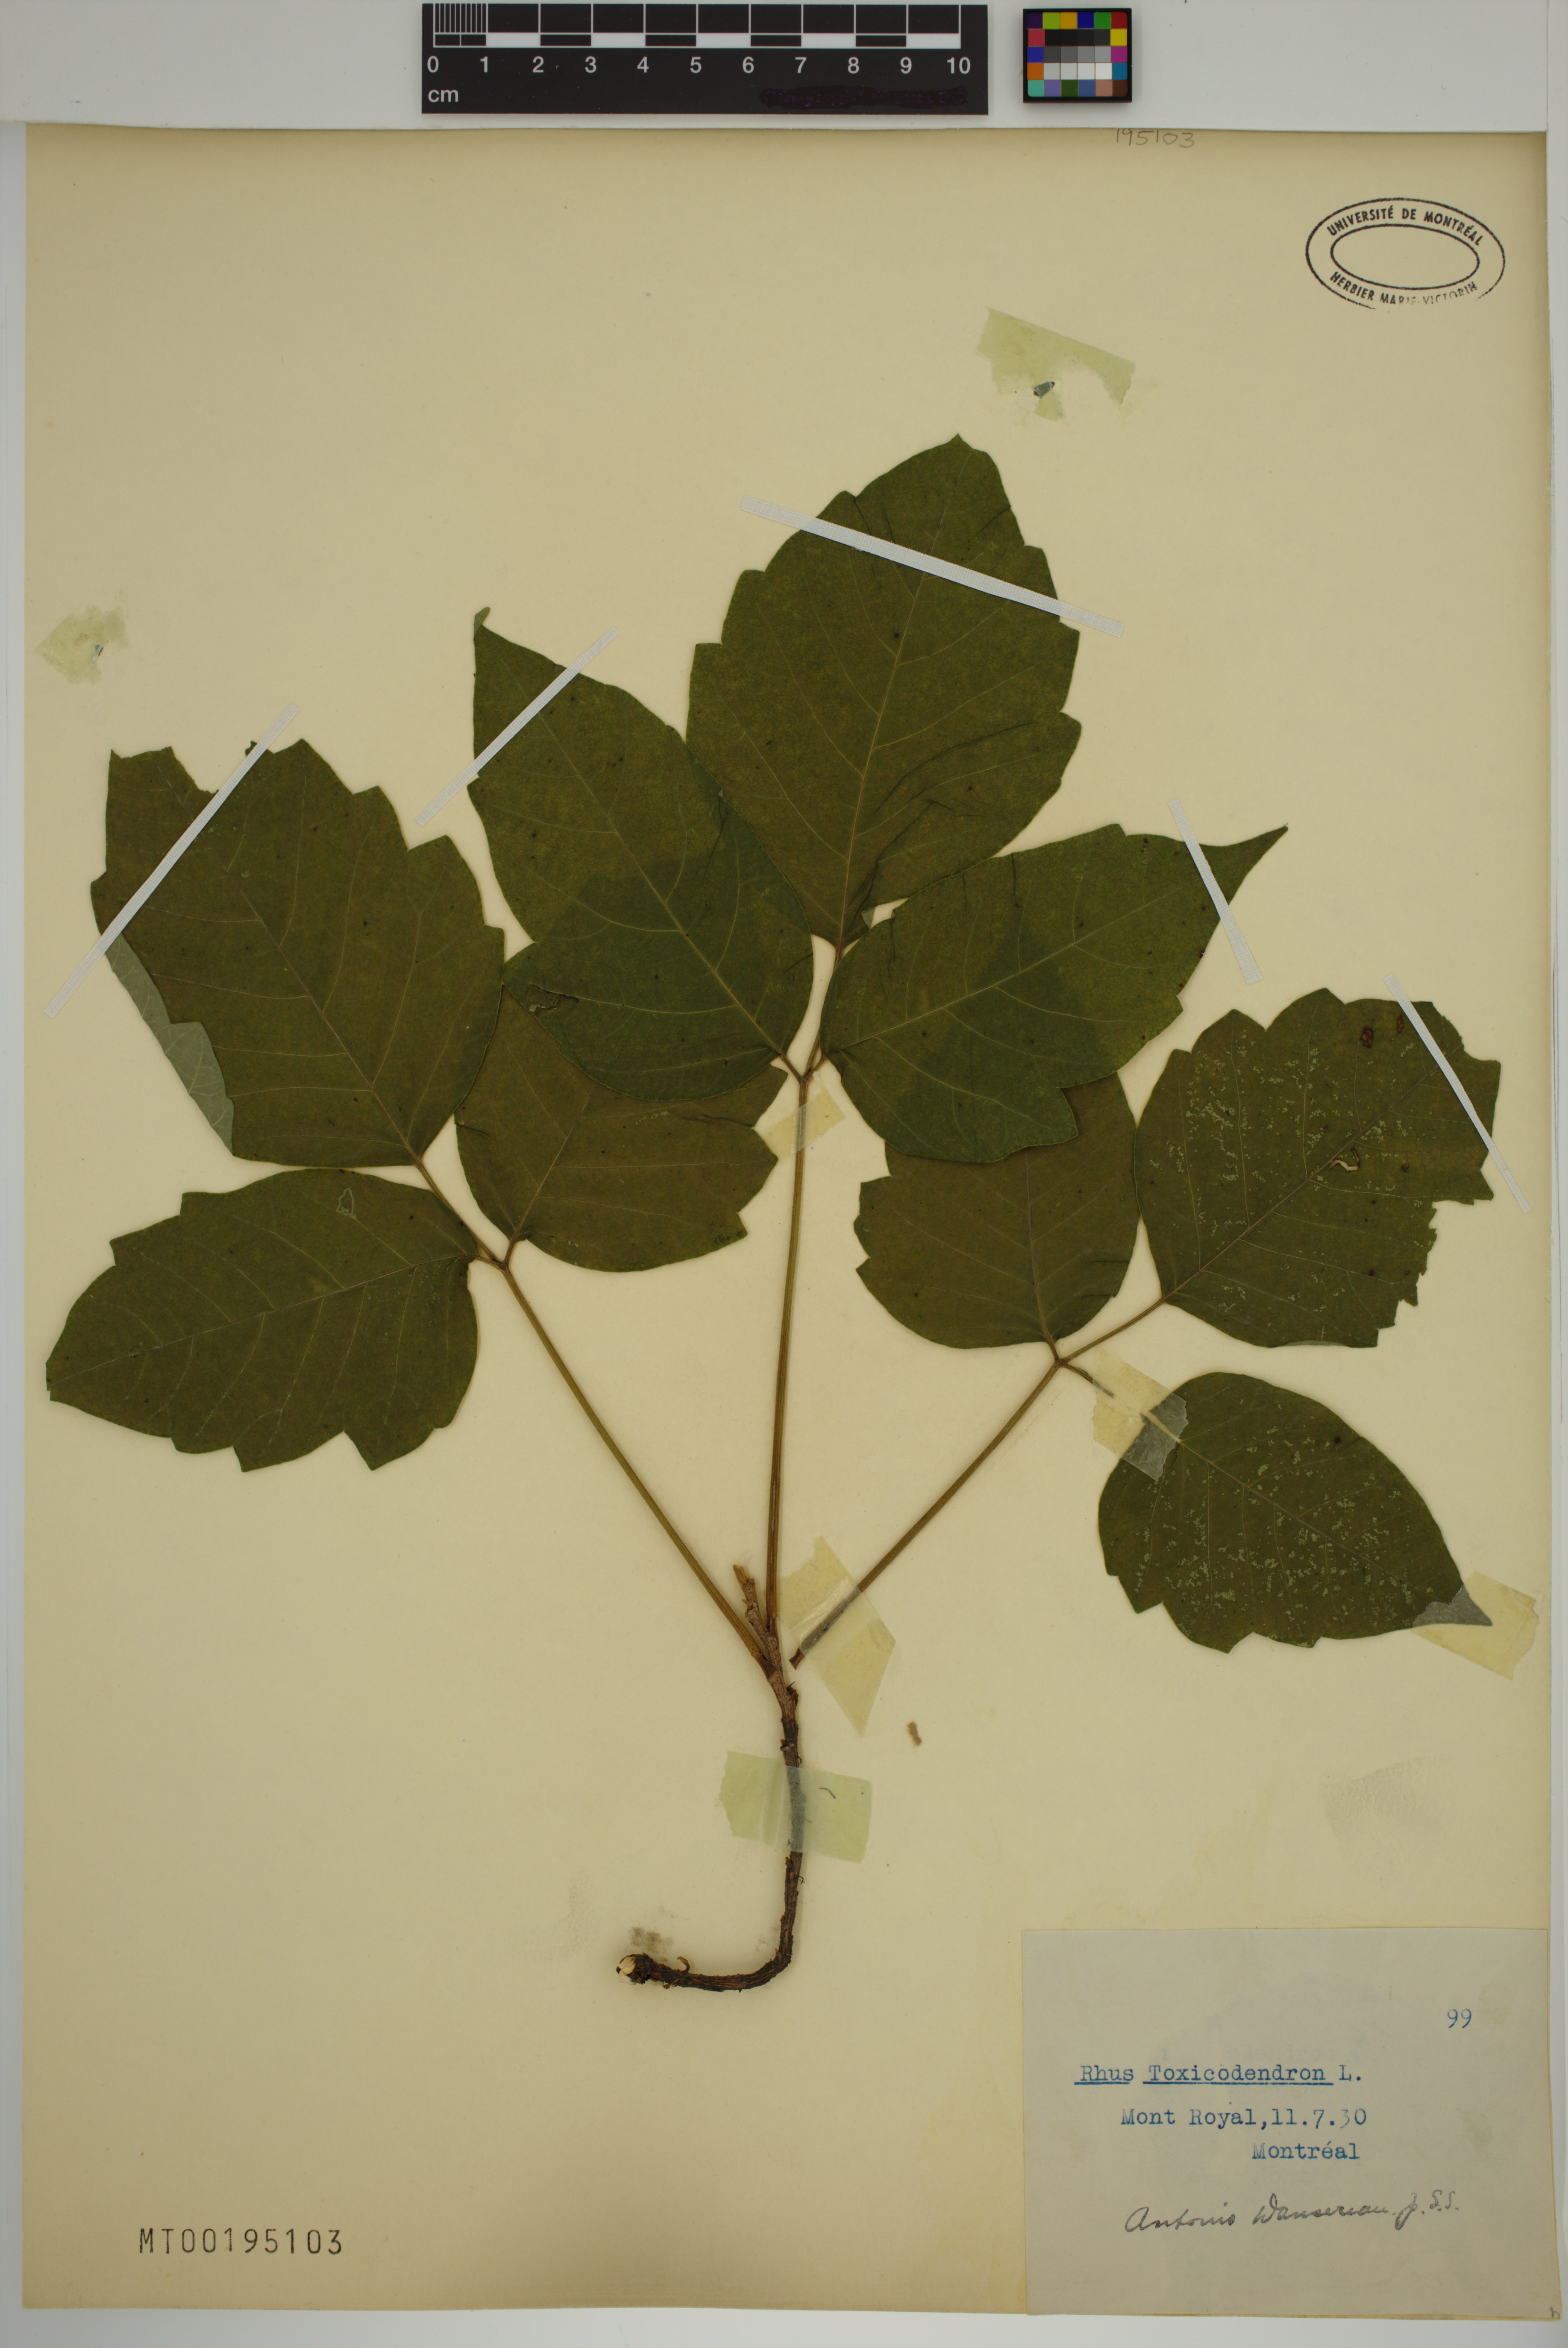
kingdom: Plantae
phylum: Tracheophyta
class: Magnoliopsida
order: Sapindales
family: Anacardiaceae
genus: Toxicodendron
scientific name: Toxicodendron
